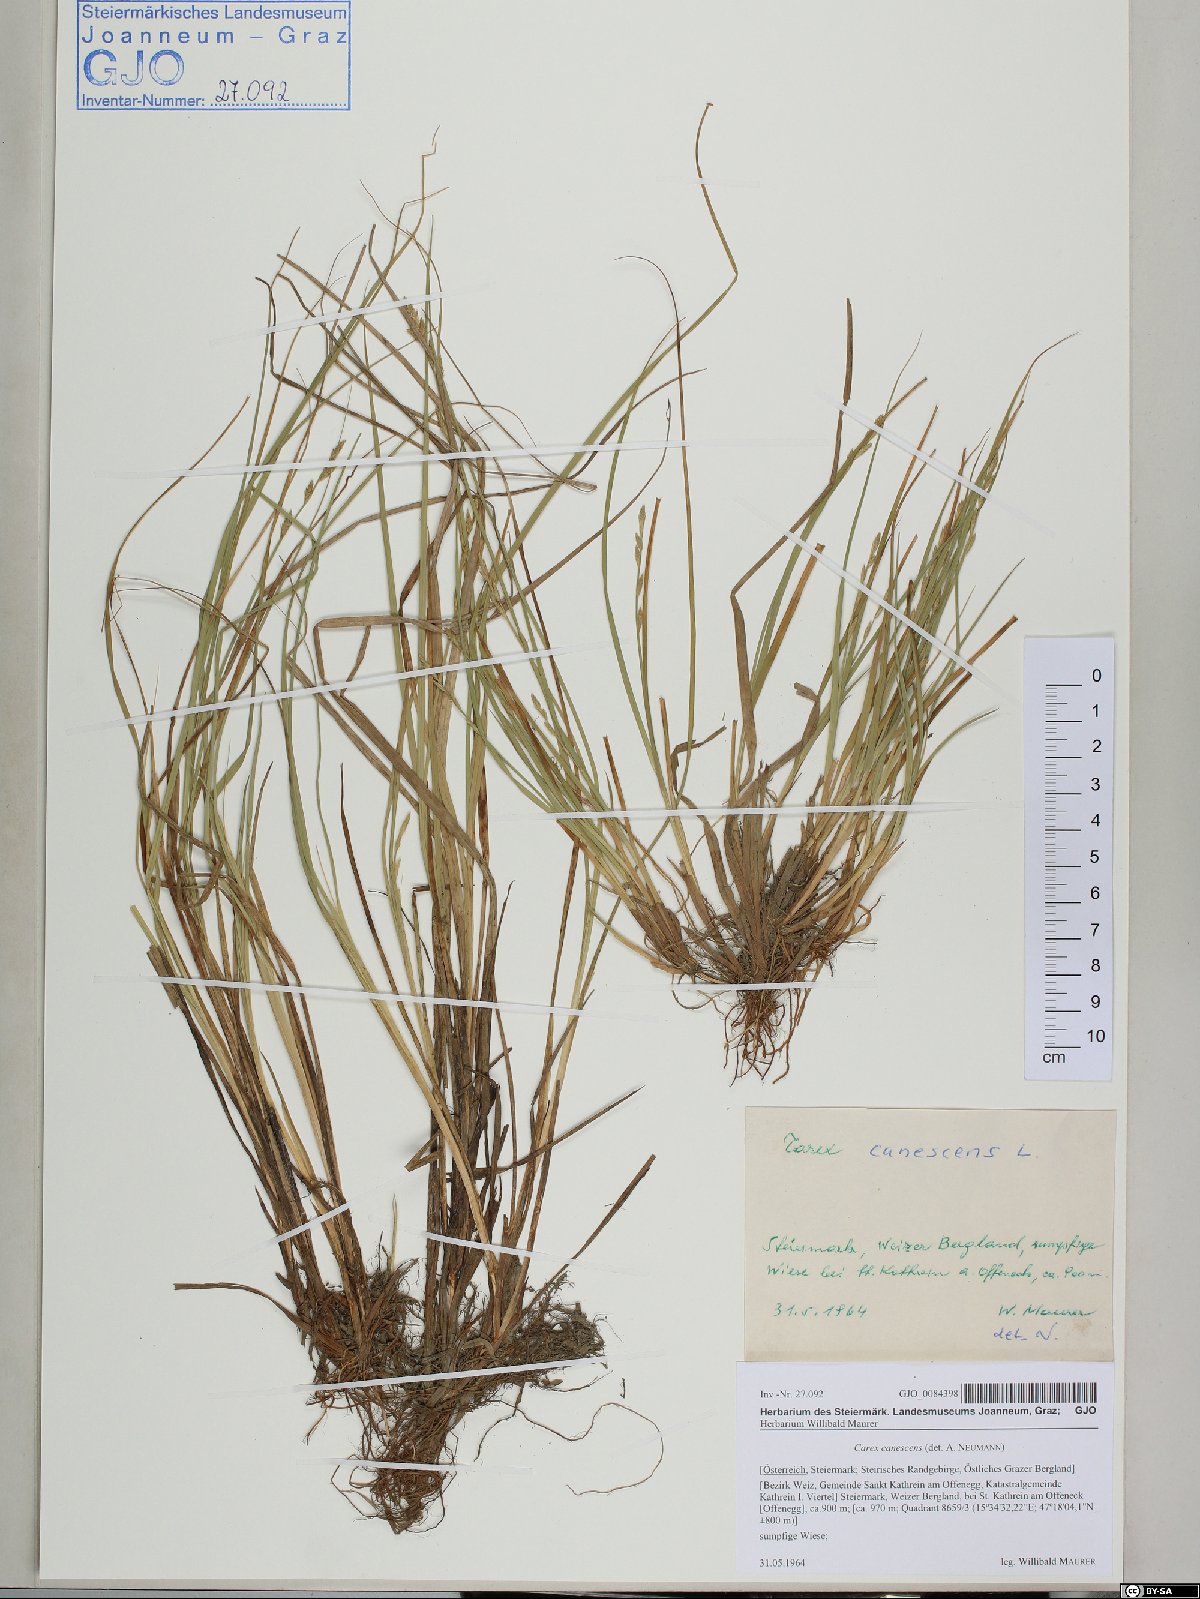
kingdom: Plantae
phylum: Tracheophyta
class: Liliopsida
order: Poales
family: Cyperaceae
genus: Carex
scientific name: Carex canescens
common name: White sedge
